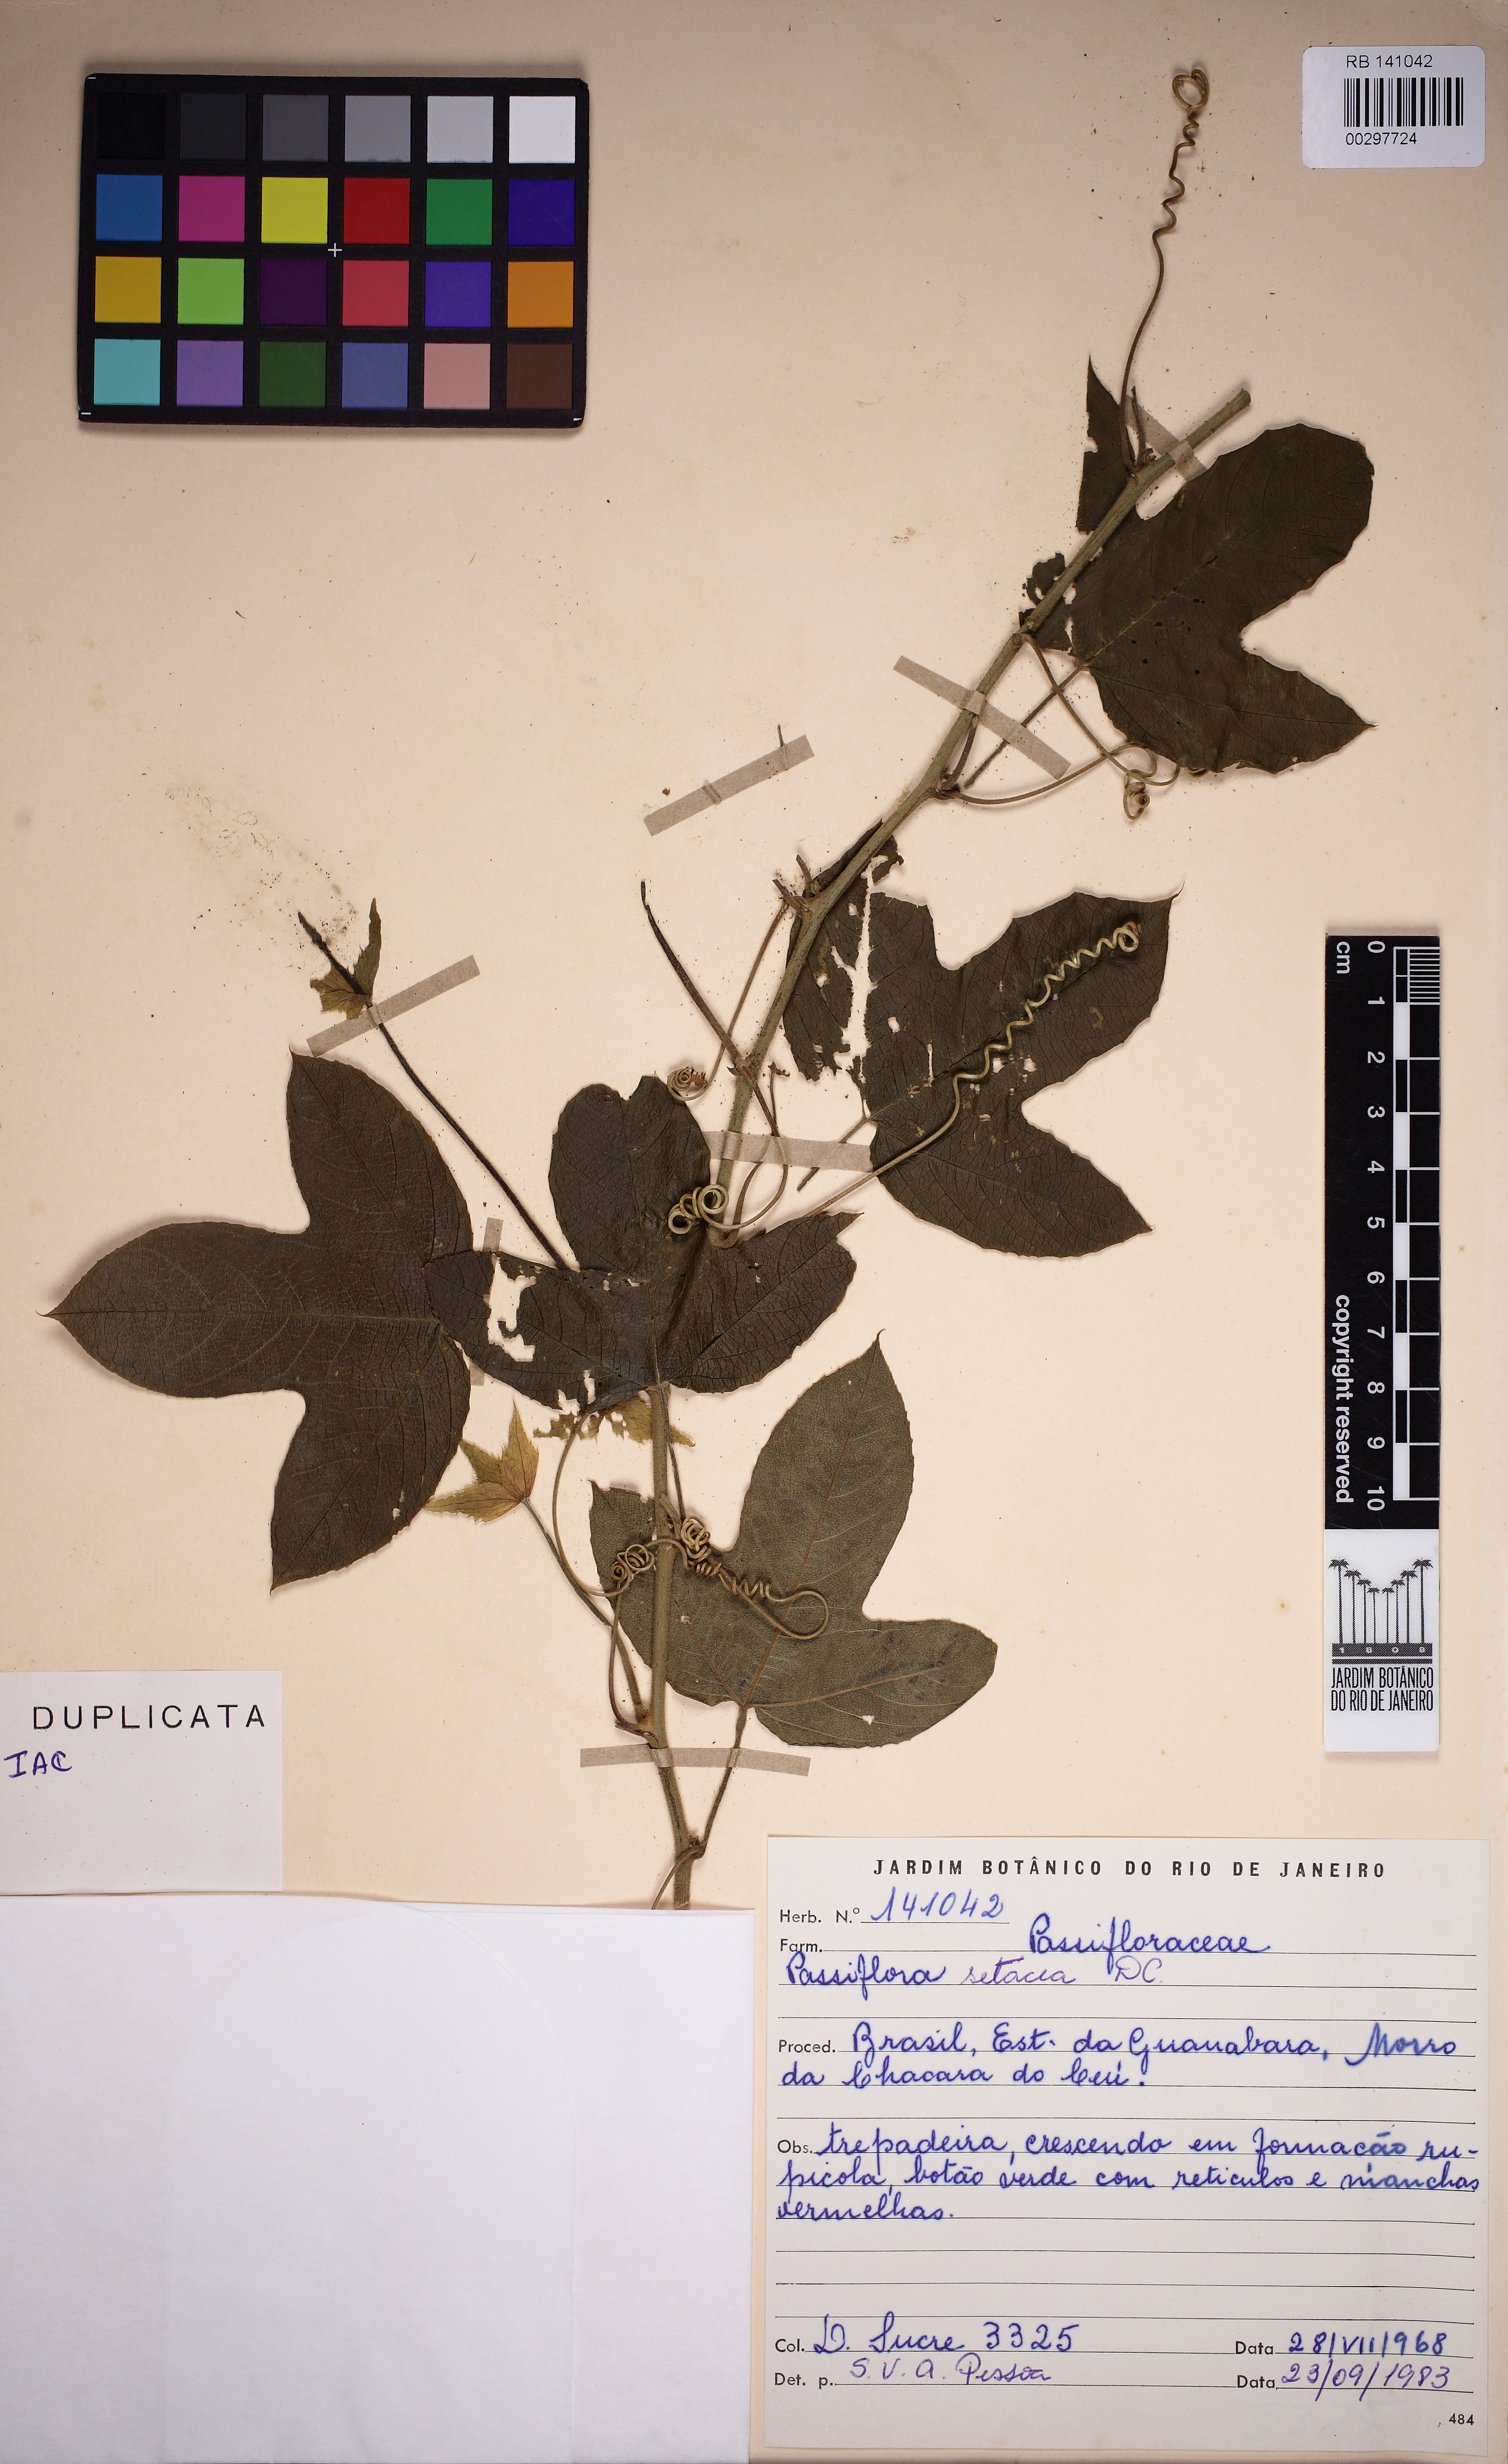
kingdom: Plantae
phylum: Tracheophyta
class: Magnoliopsida
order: Malpighiales
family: Passifloraceae
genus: Passiflora
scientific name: Passiflora setacea
